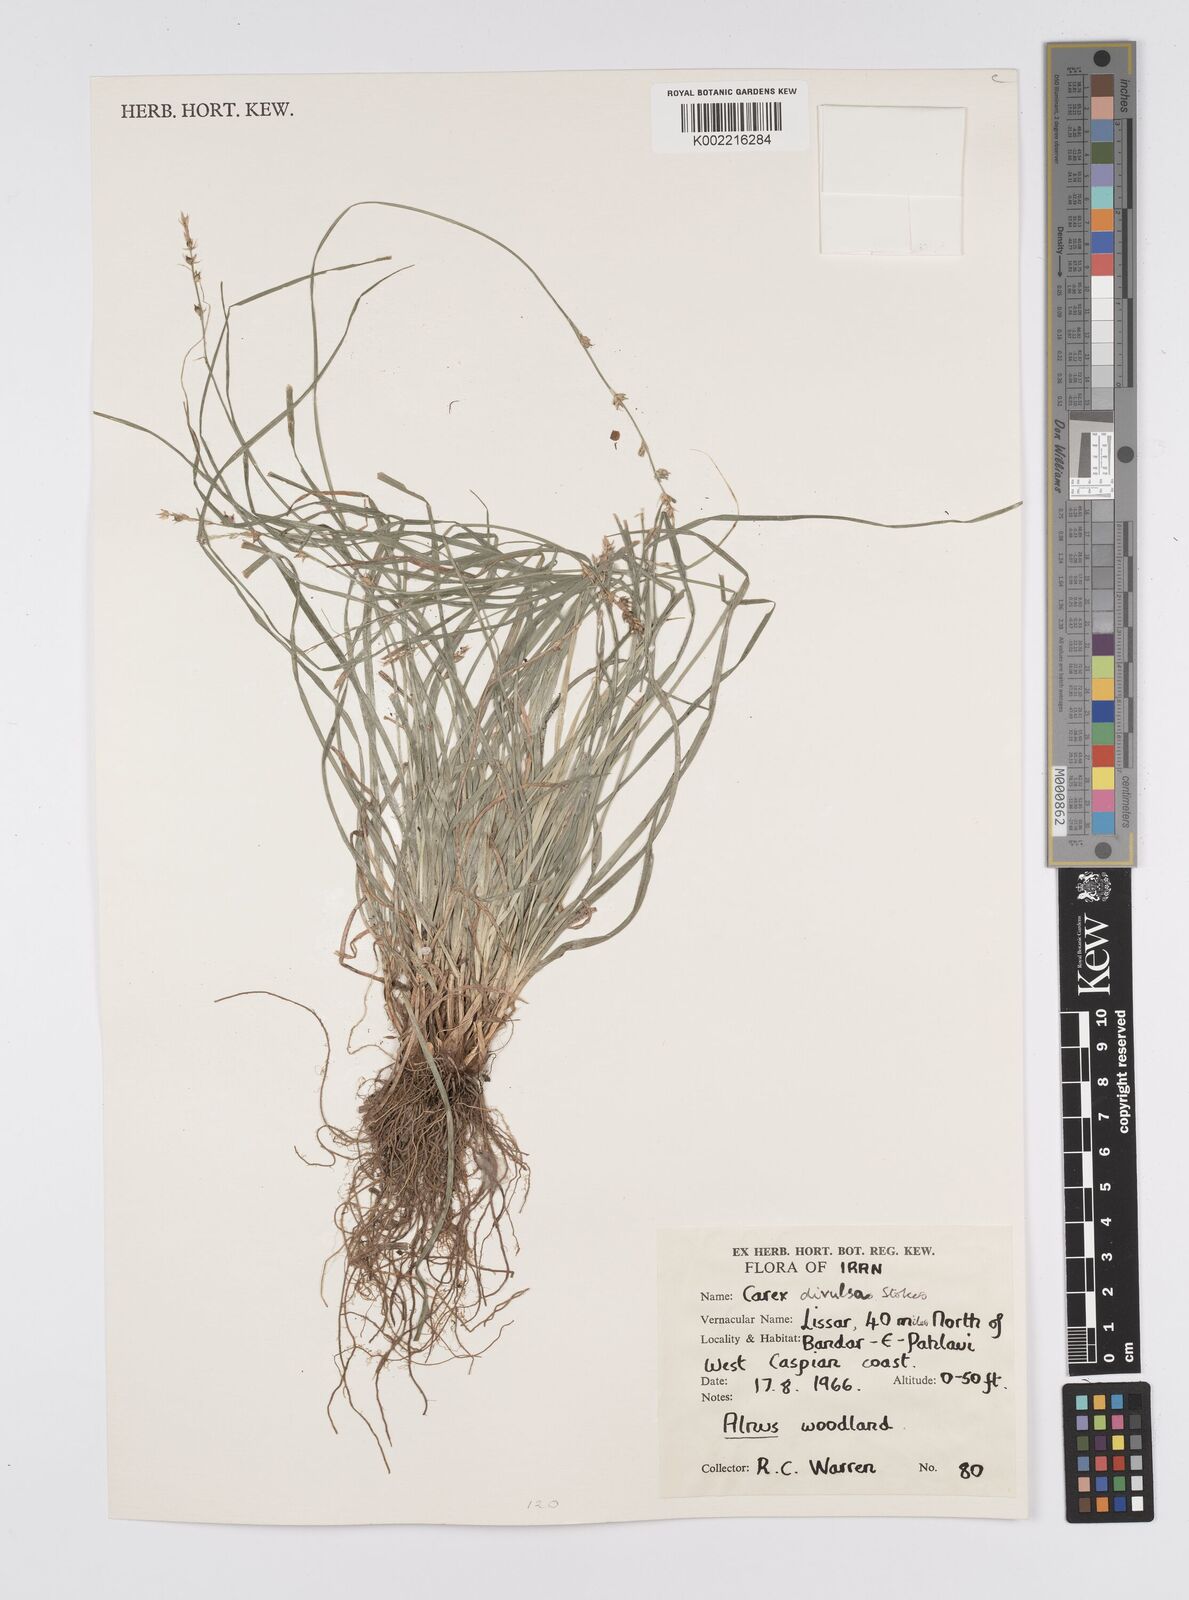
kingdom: Plantae
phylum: Tracheophyta
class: Liliopsida
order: Poales
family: Cyperaceae
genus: Carex
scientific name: Carex divulsa
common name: Grassland sedge
